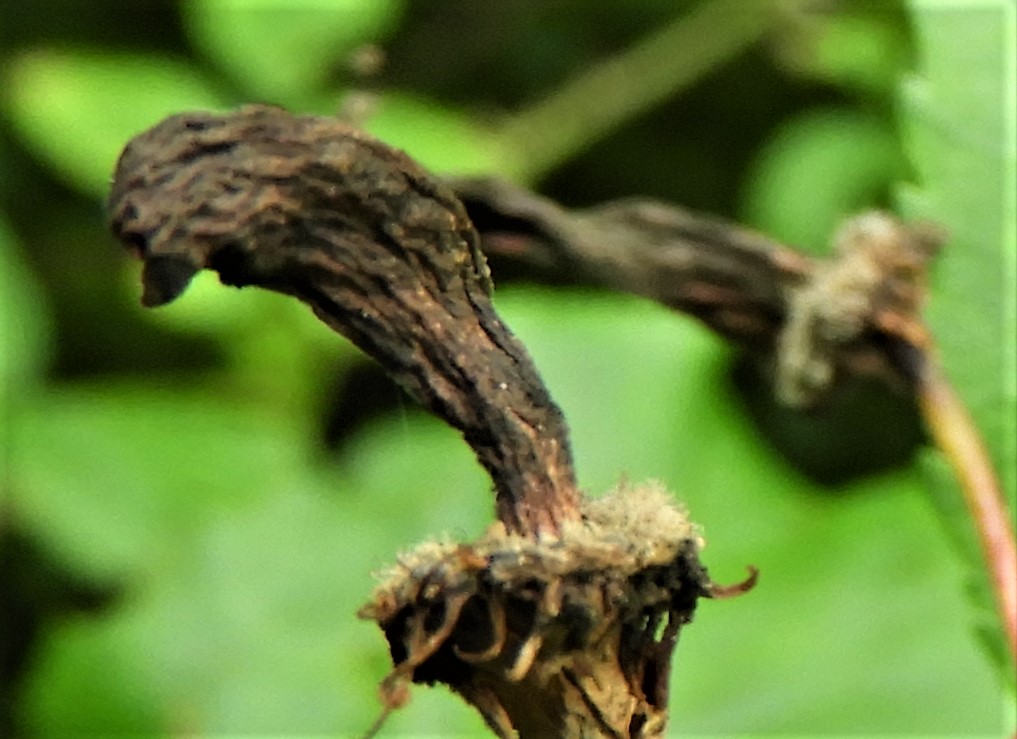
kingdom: Fungi
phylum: Ascomycota
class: Taphrinomycetes
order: Taphrinales
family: Taphrinaceae
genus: Taphrina
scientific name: Taphrina padi
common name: Bird cherry pocket
